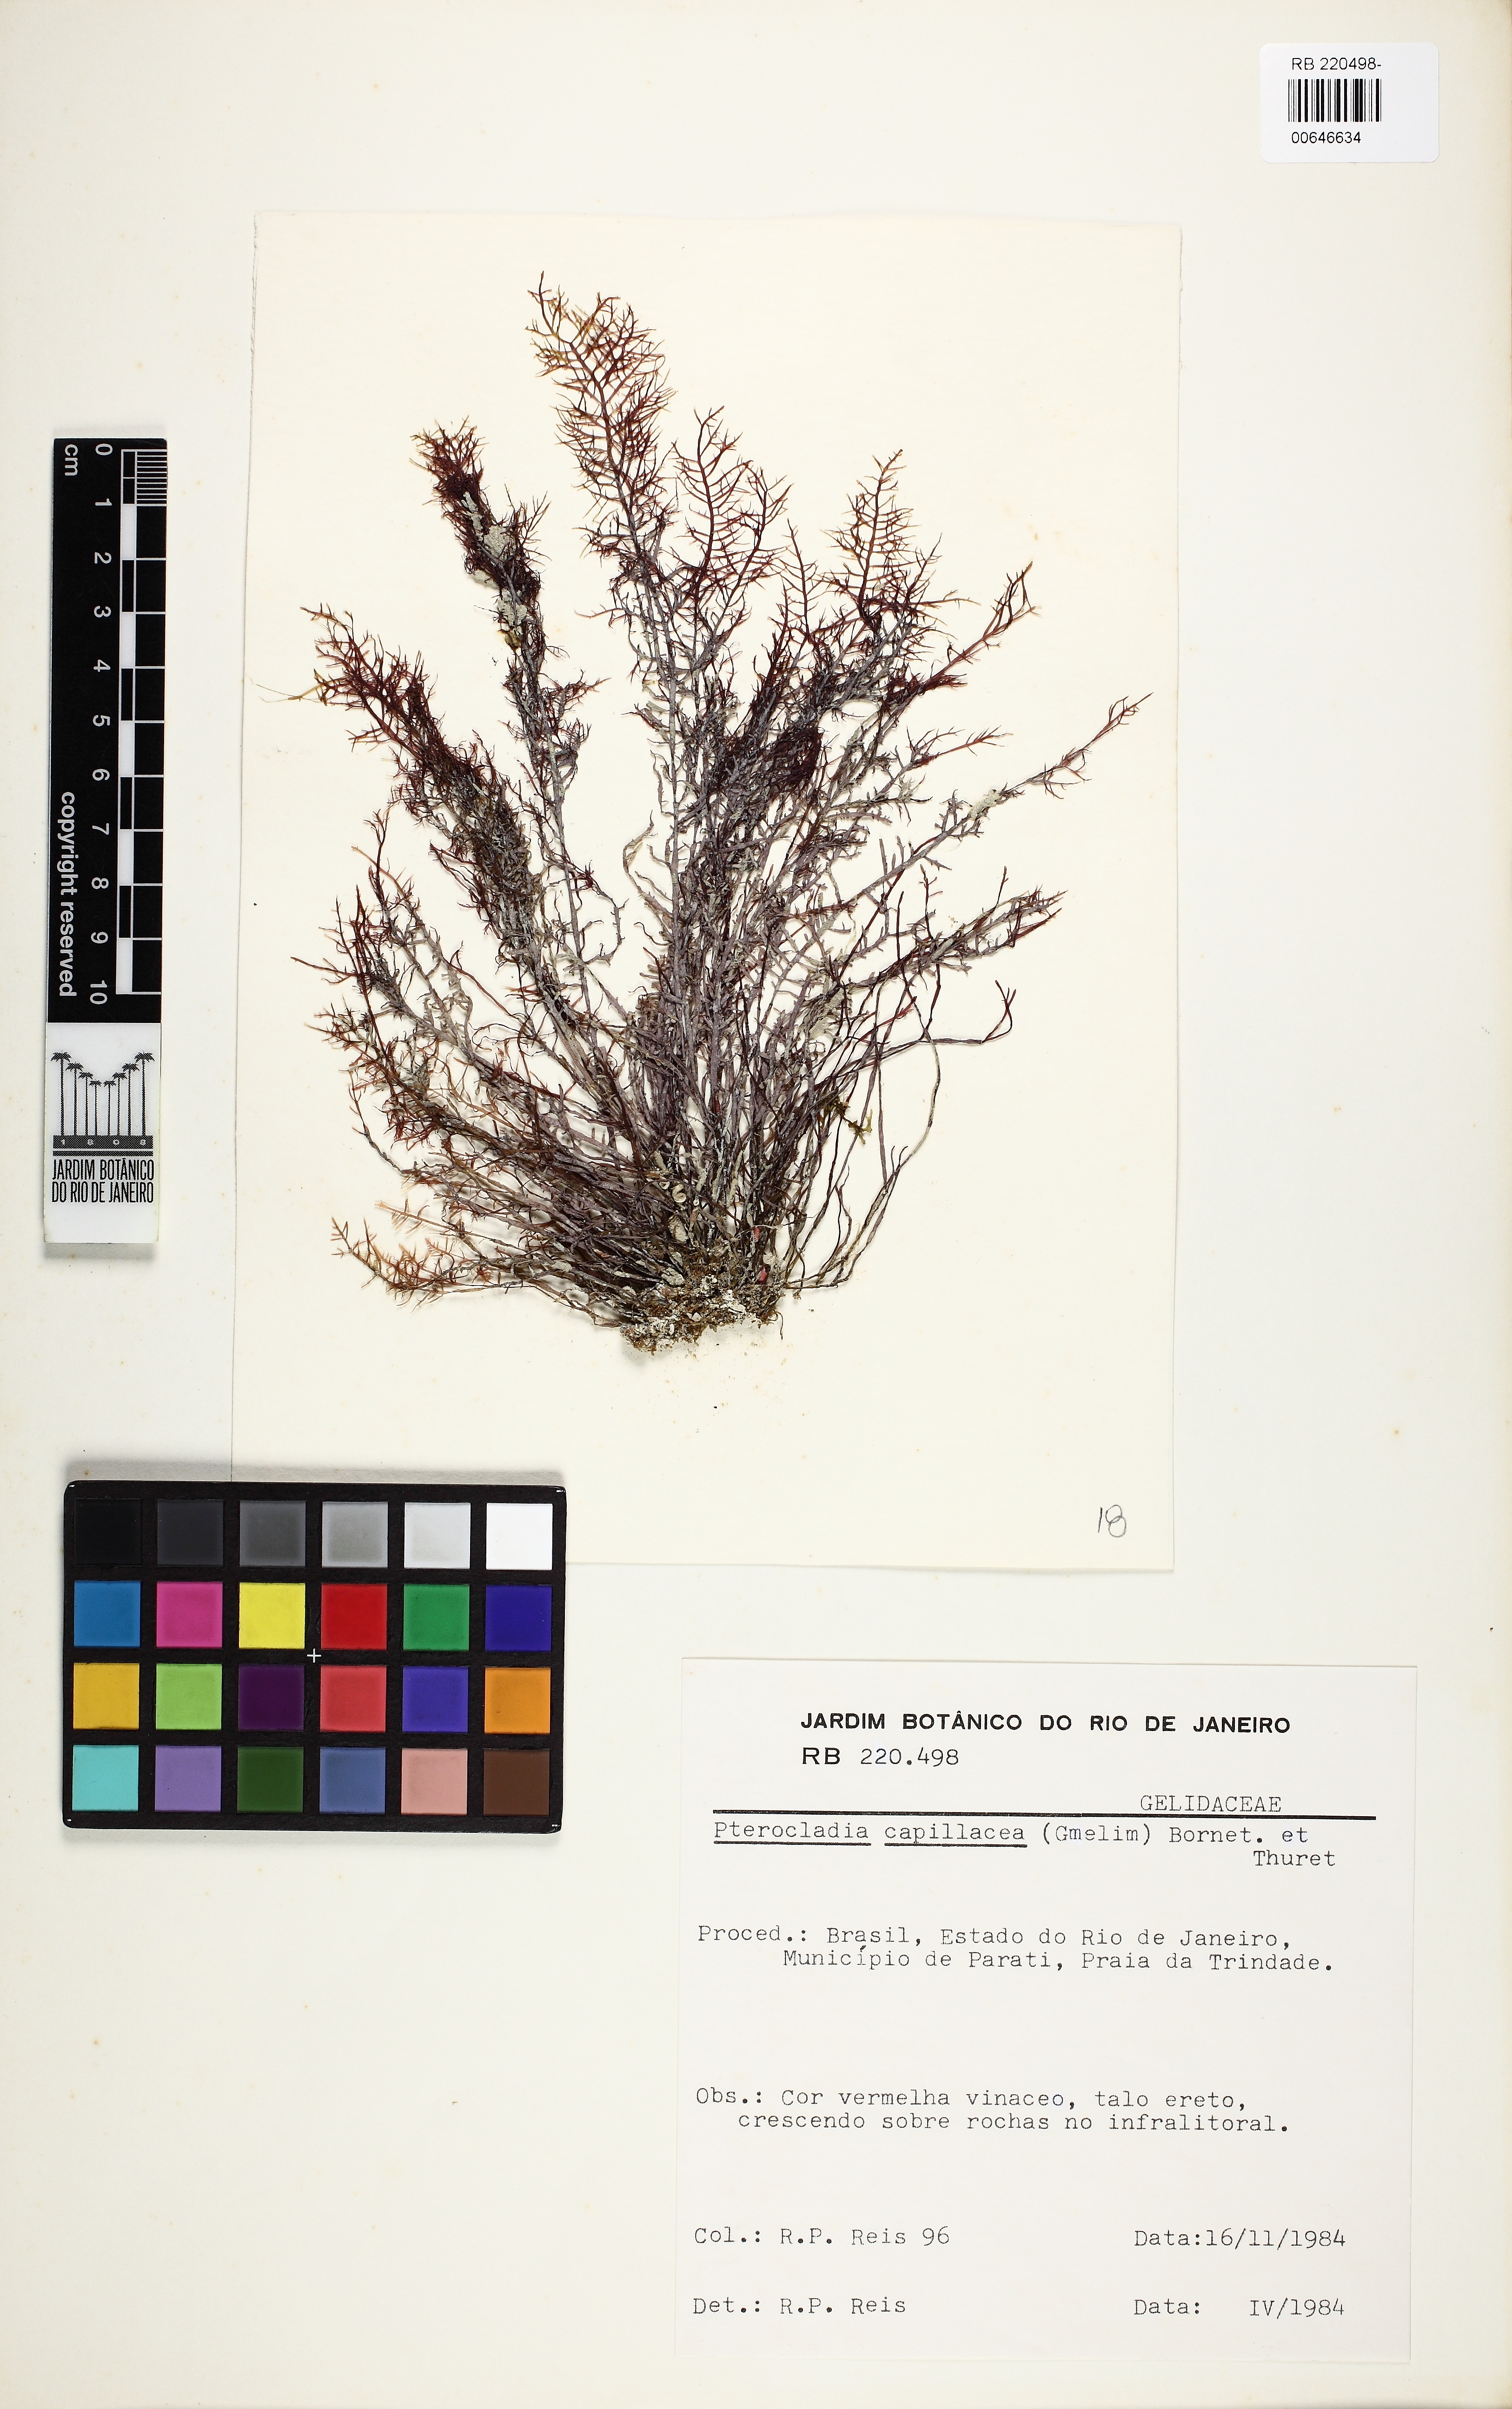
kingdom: Plantae
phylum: Rhodophyta
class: Florideophyceae
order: Gelidiales
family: Pterocladiaceae
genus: Pterocladiella
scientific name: Pterocladiella capillacea
